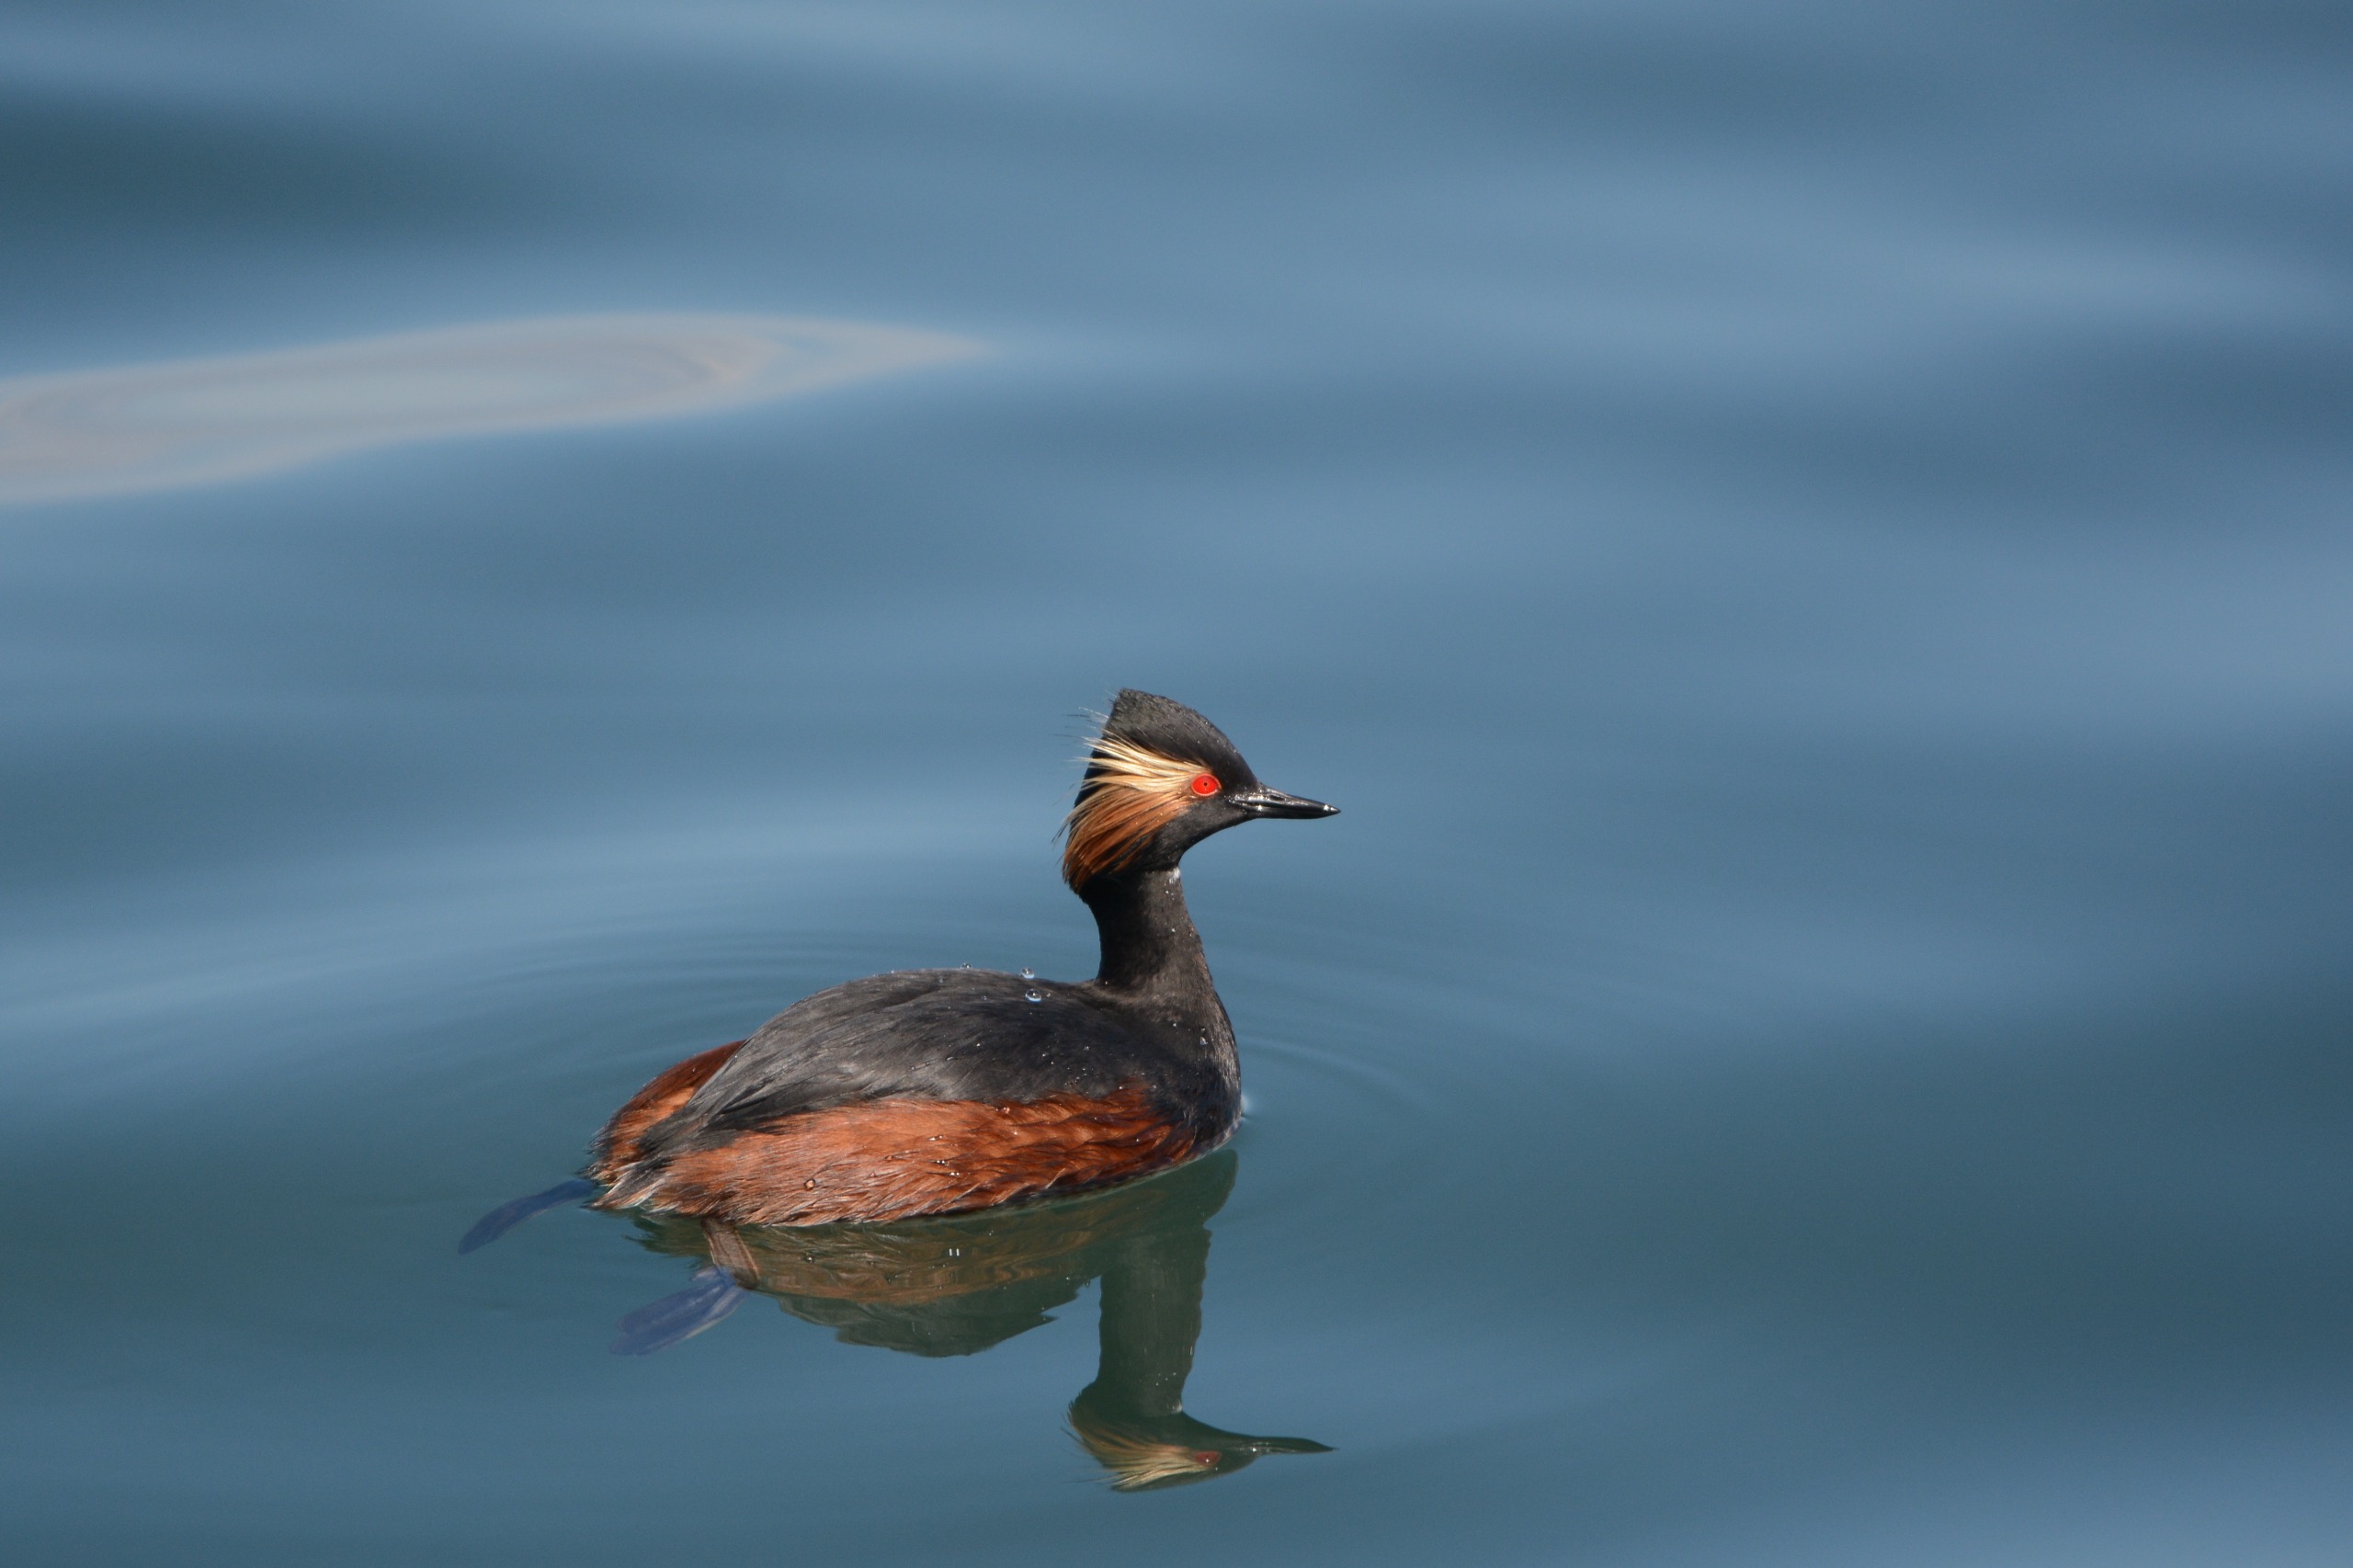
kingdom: Animalia
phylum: Chordata
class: Aves
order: Podicipediformes
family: Podicipedidae
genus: Podiceps
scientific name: Podiceps nigricollis
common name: Sorthalset lappedykker
